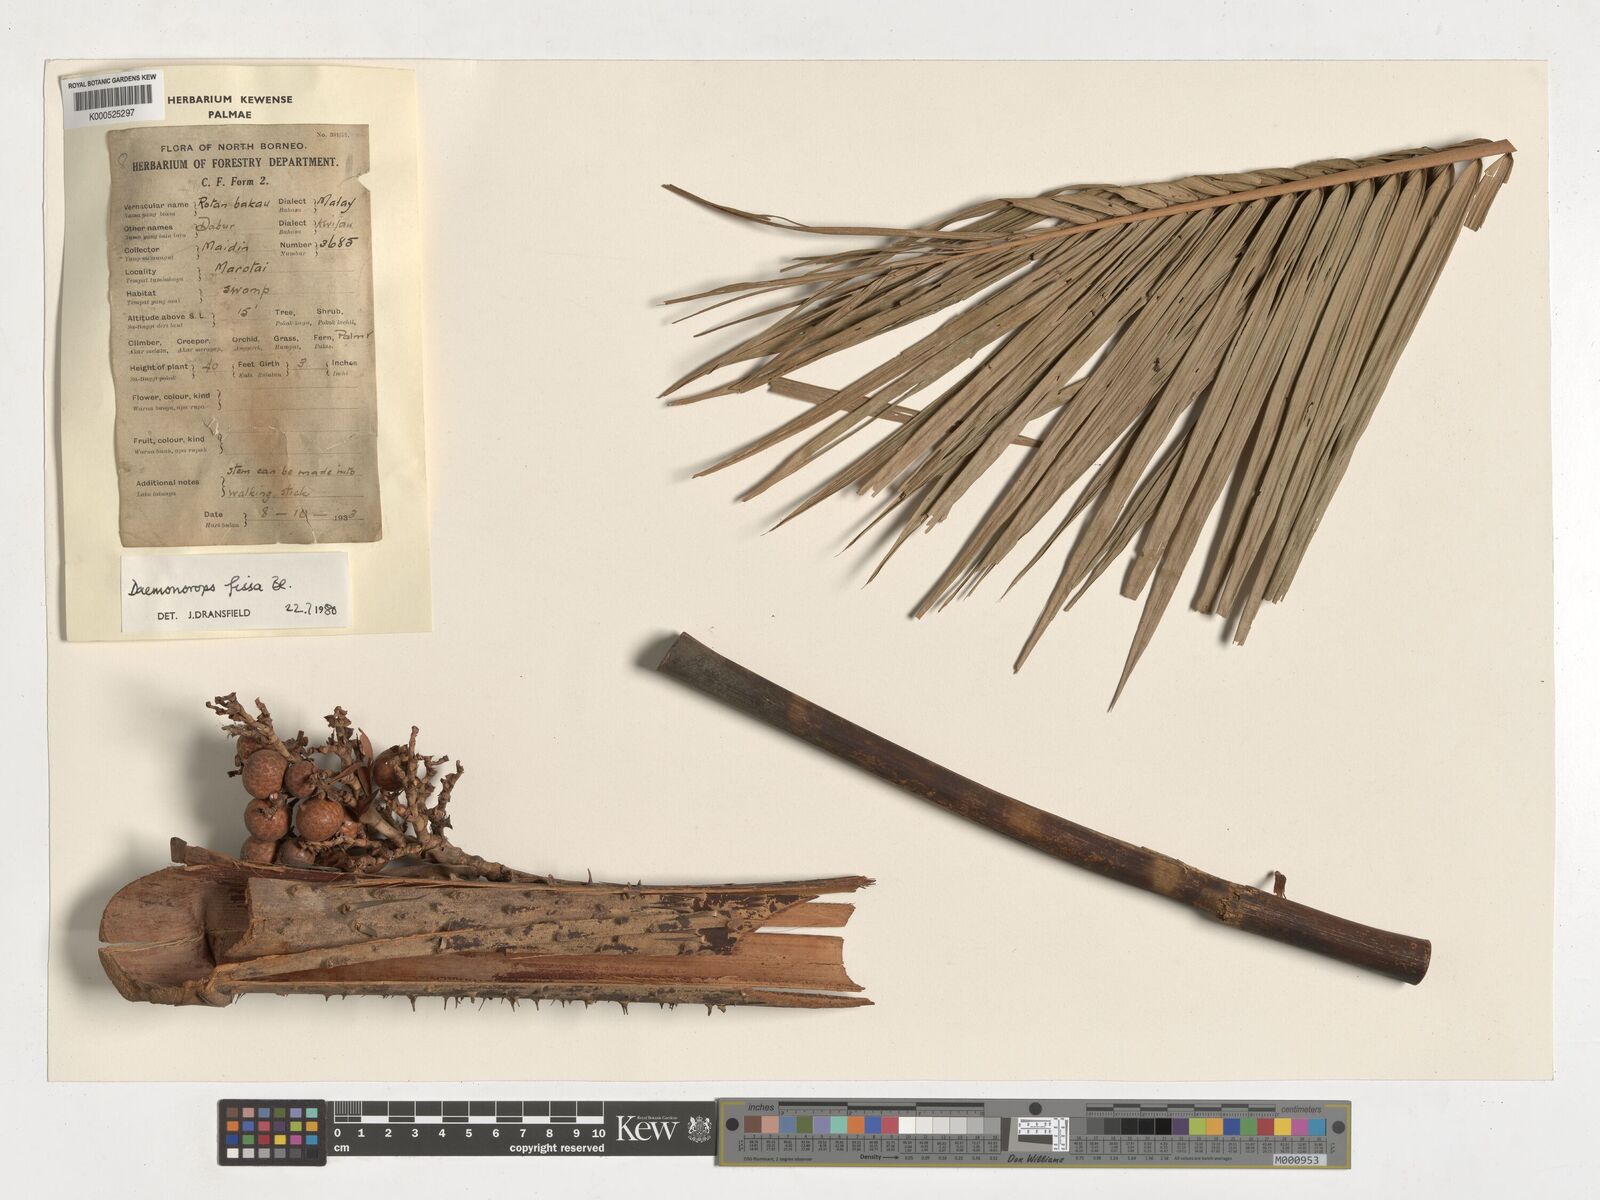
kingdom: Plantae
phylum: Tracheophyta
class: Liliopsida
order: Arecales
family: Arecaceae
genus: Calamus
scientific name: Calamus melanochaetes
